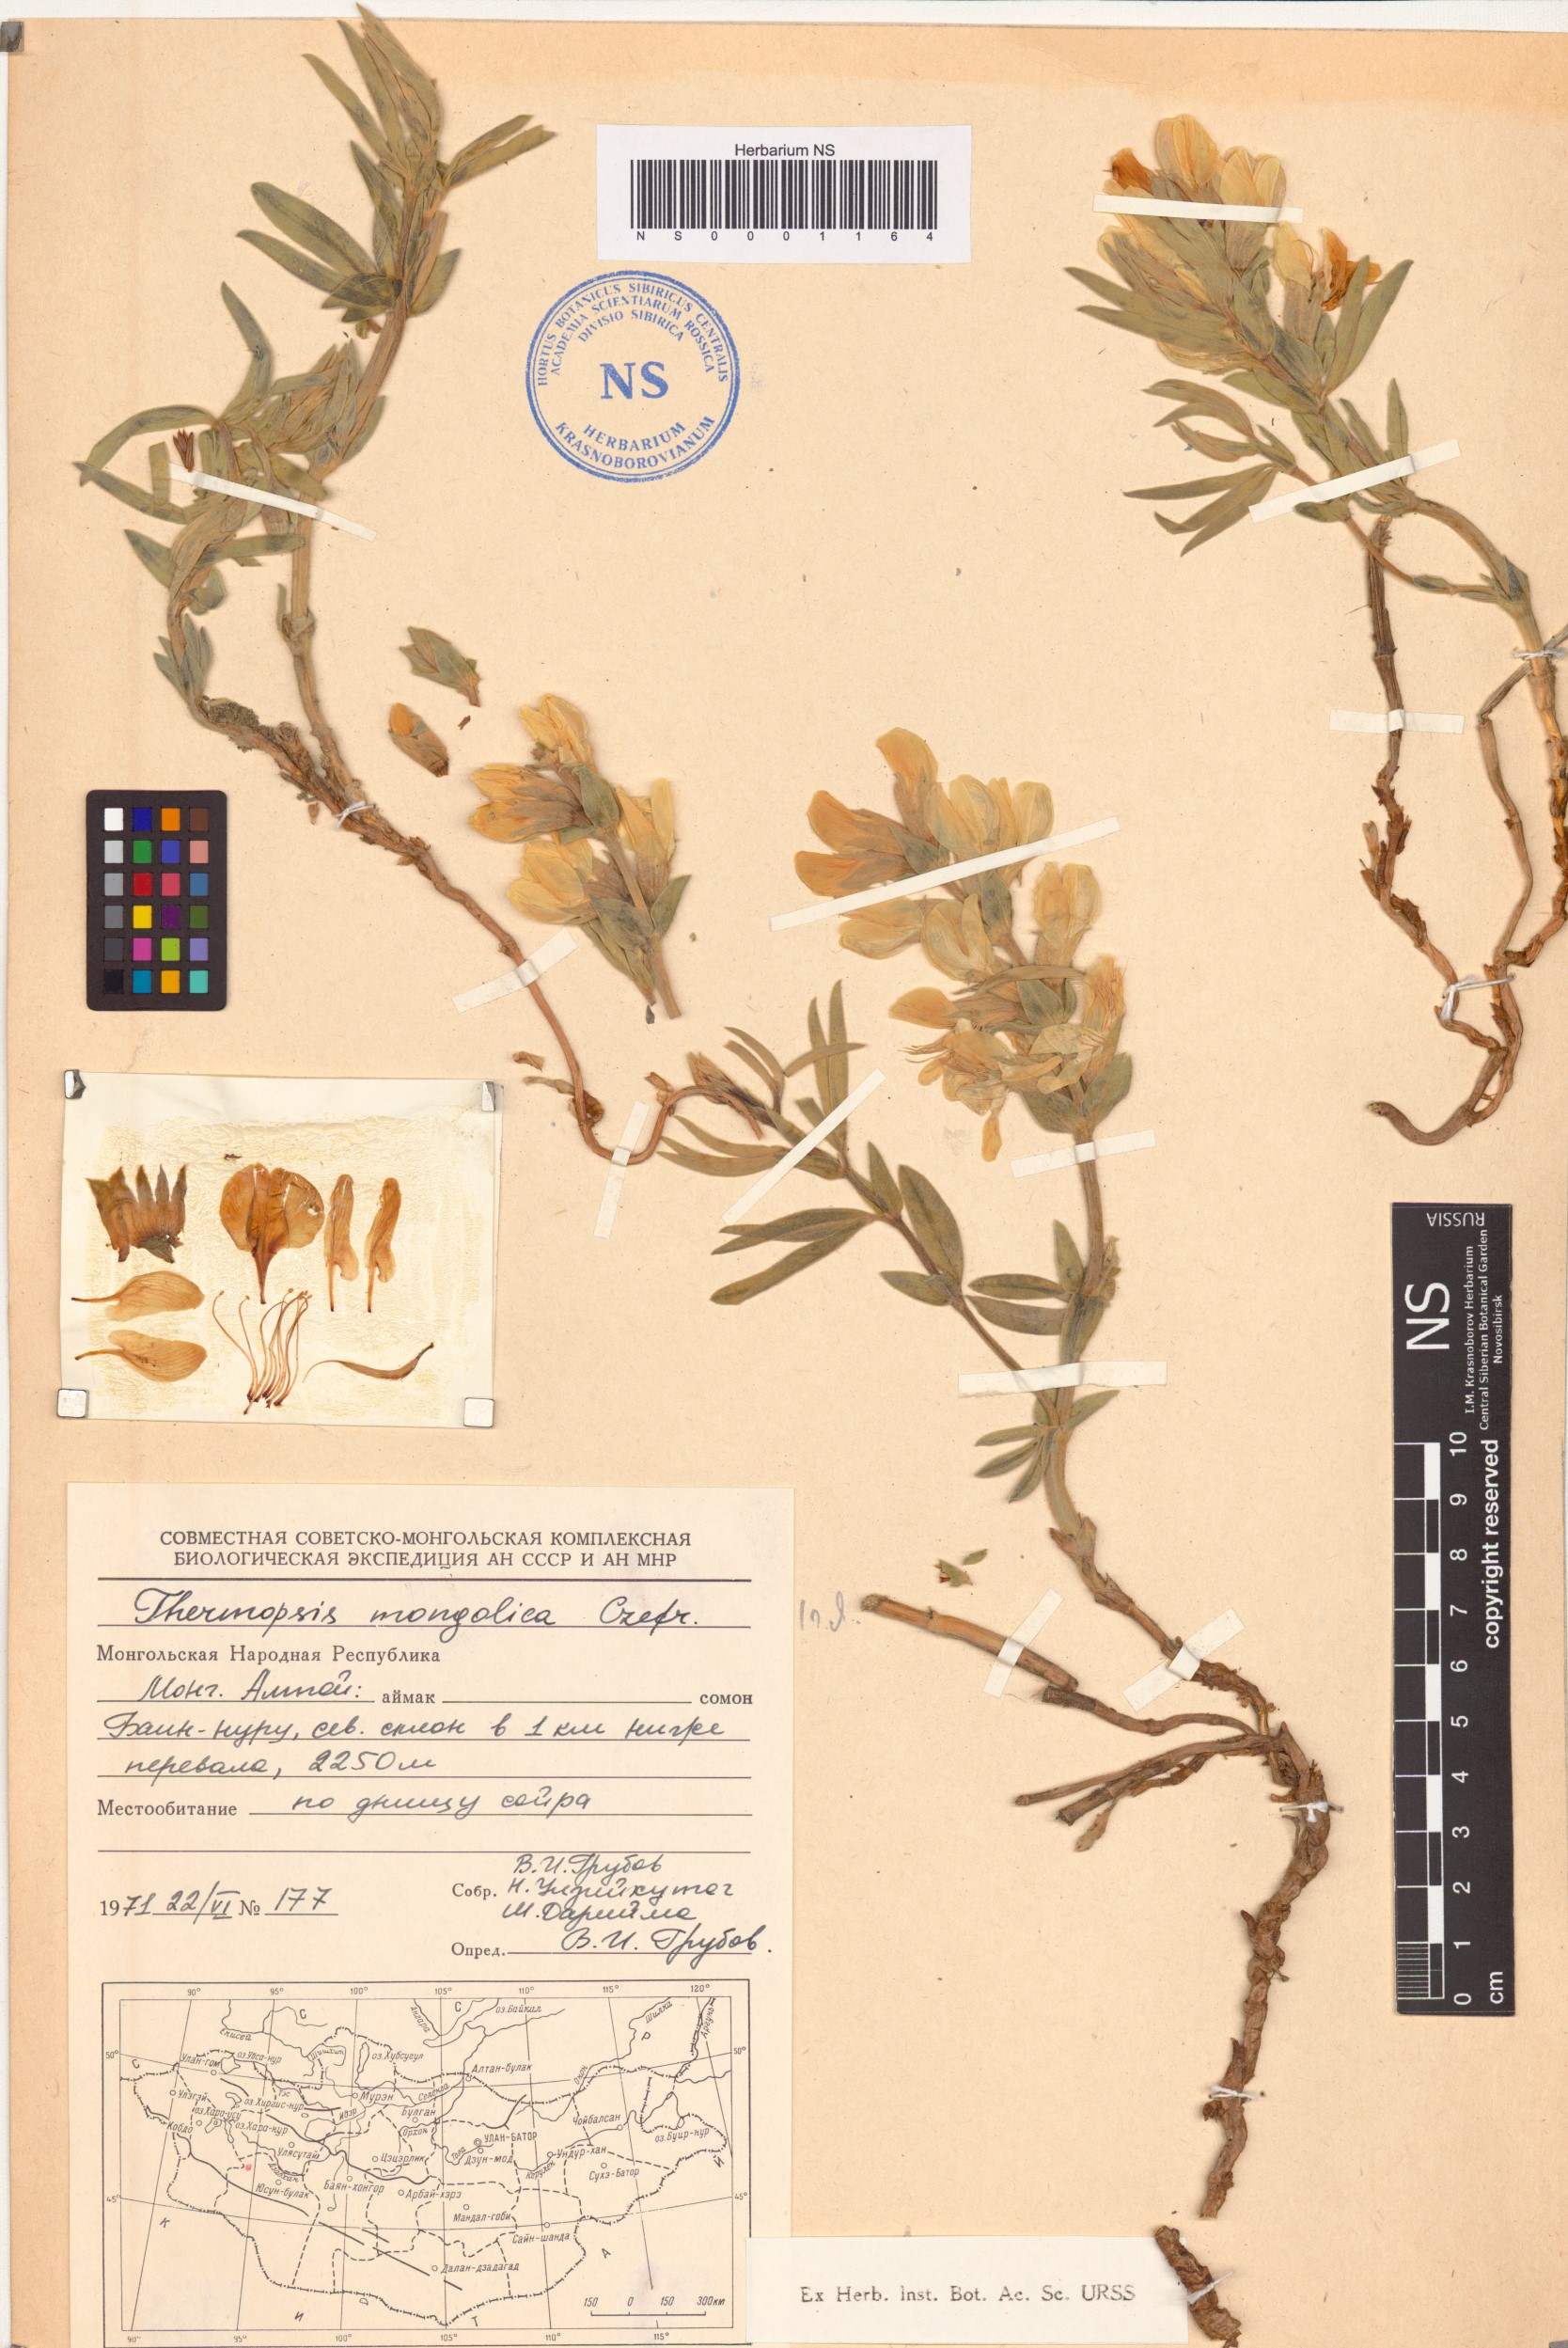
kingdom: Plantae
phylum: Tracheophyta
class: Magnoliopsida
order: Fabales
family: Fabaceae
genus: Thermopsis
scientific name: Thermopsis mongolica
